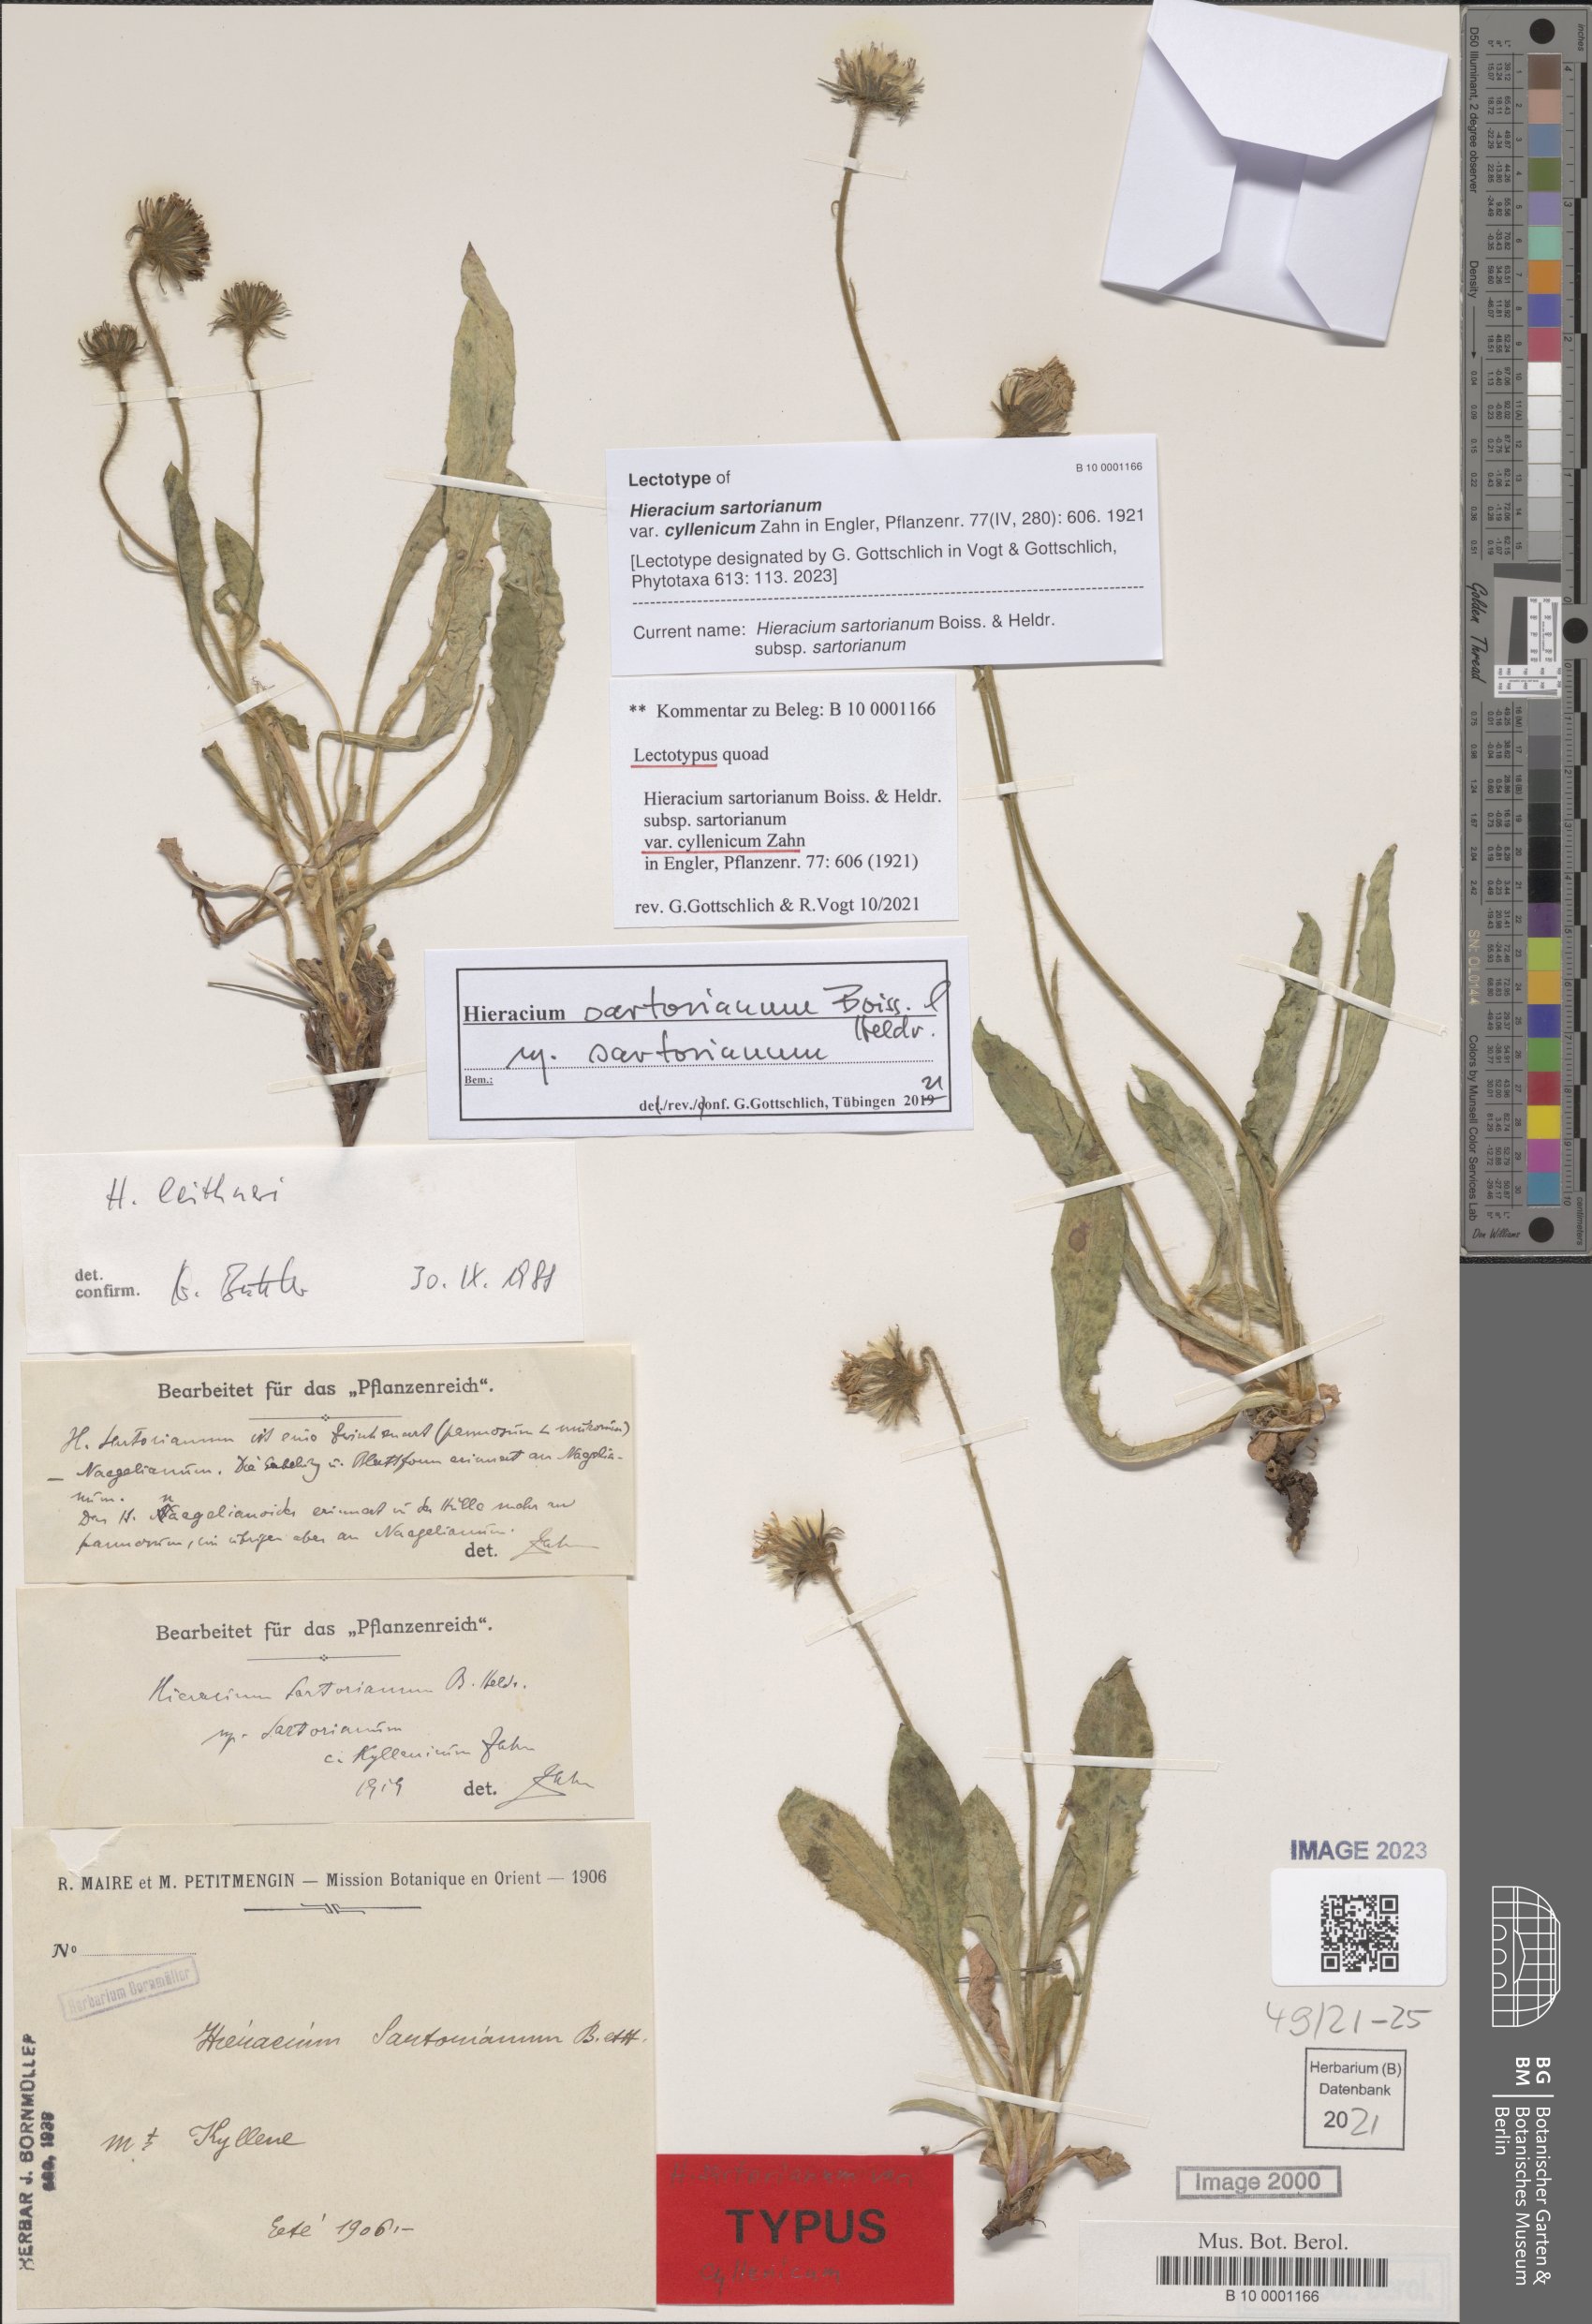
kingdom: Plantae
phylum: Tracheophyta
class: Magnoliopsida
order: Asterales
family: Asteraceae
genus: Hieracium
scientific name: Hieracium sartorianum
